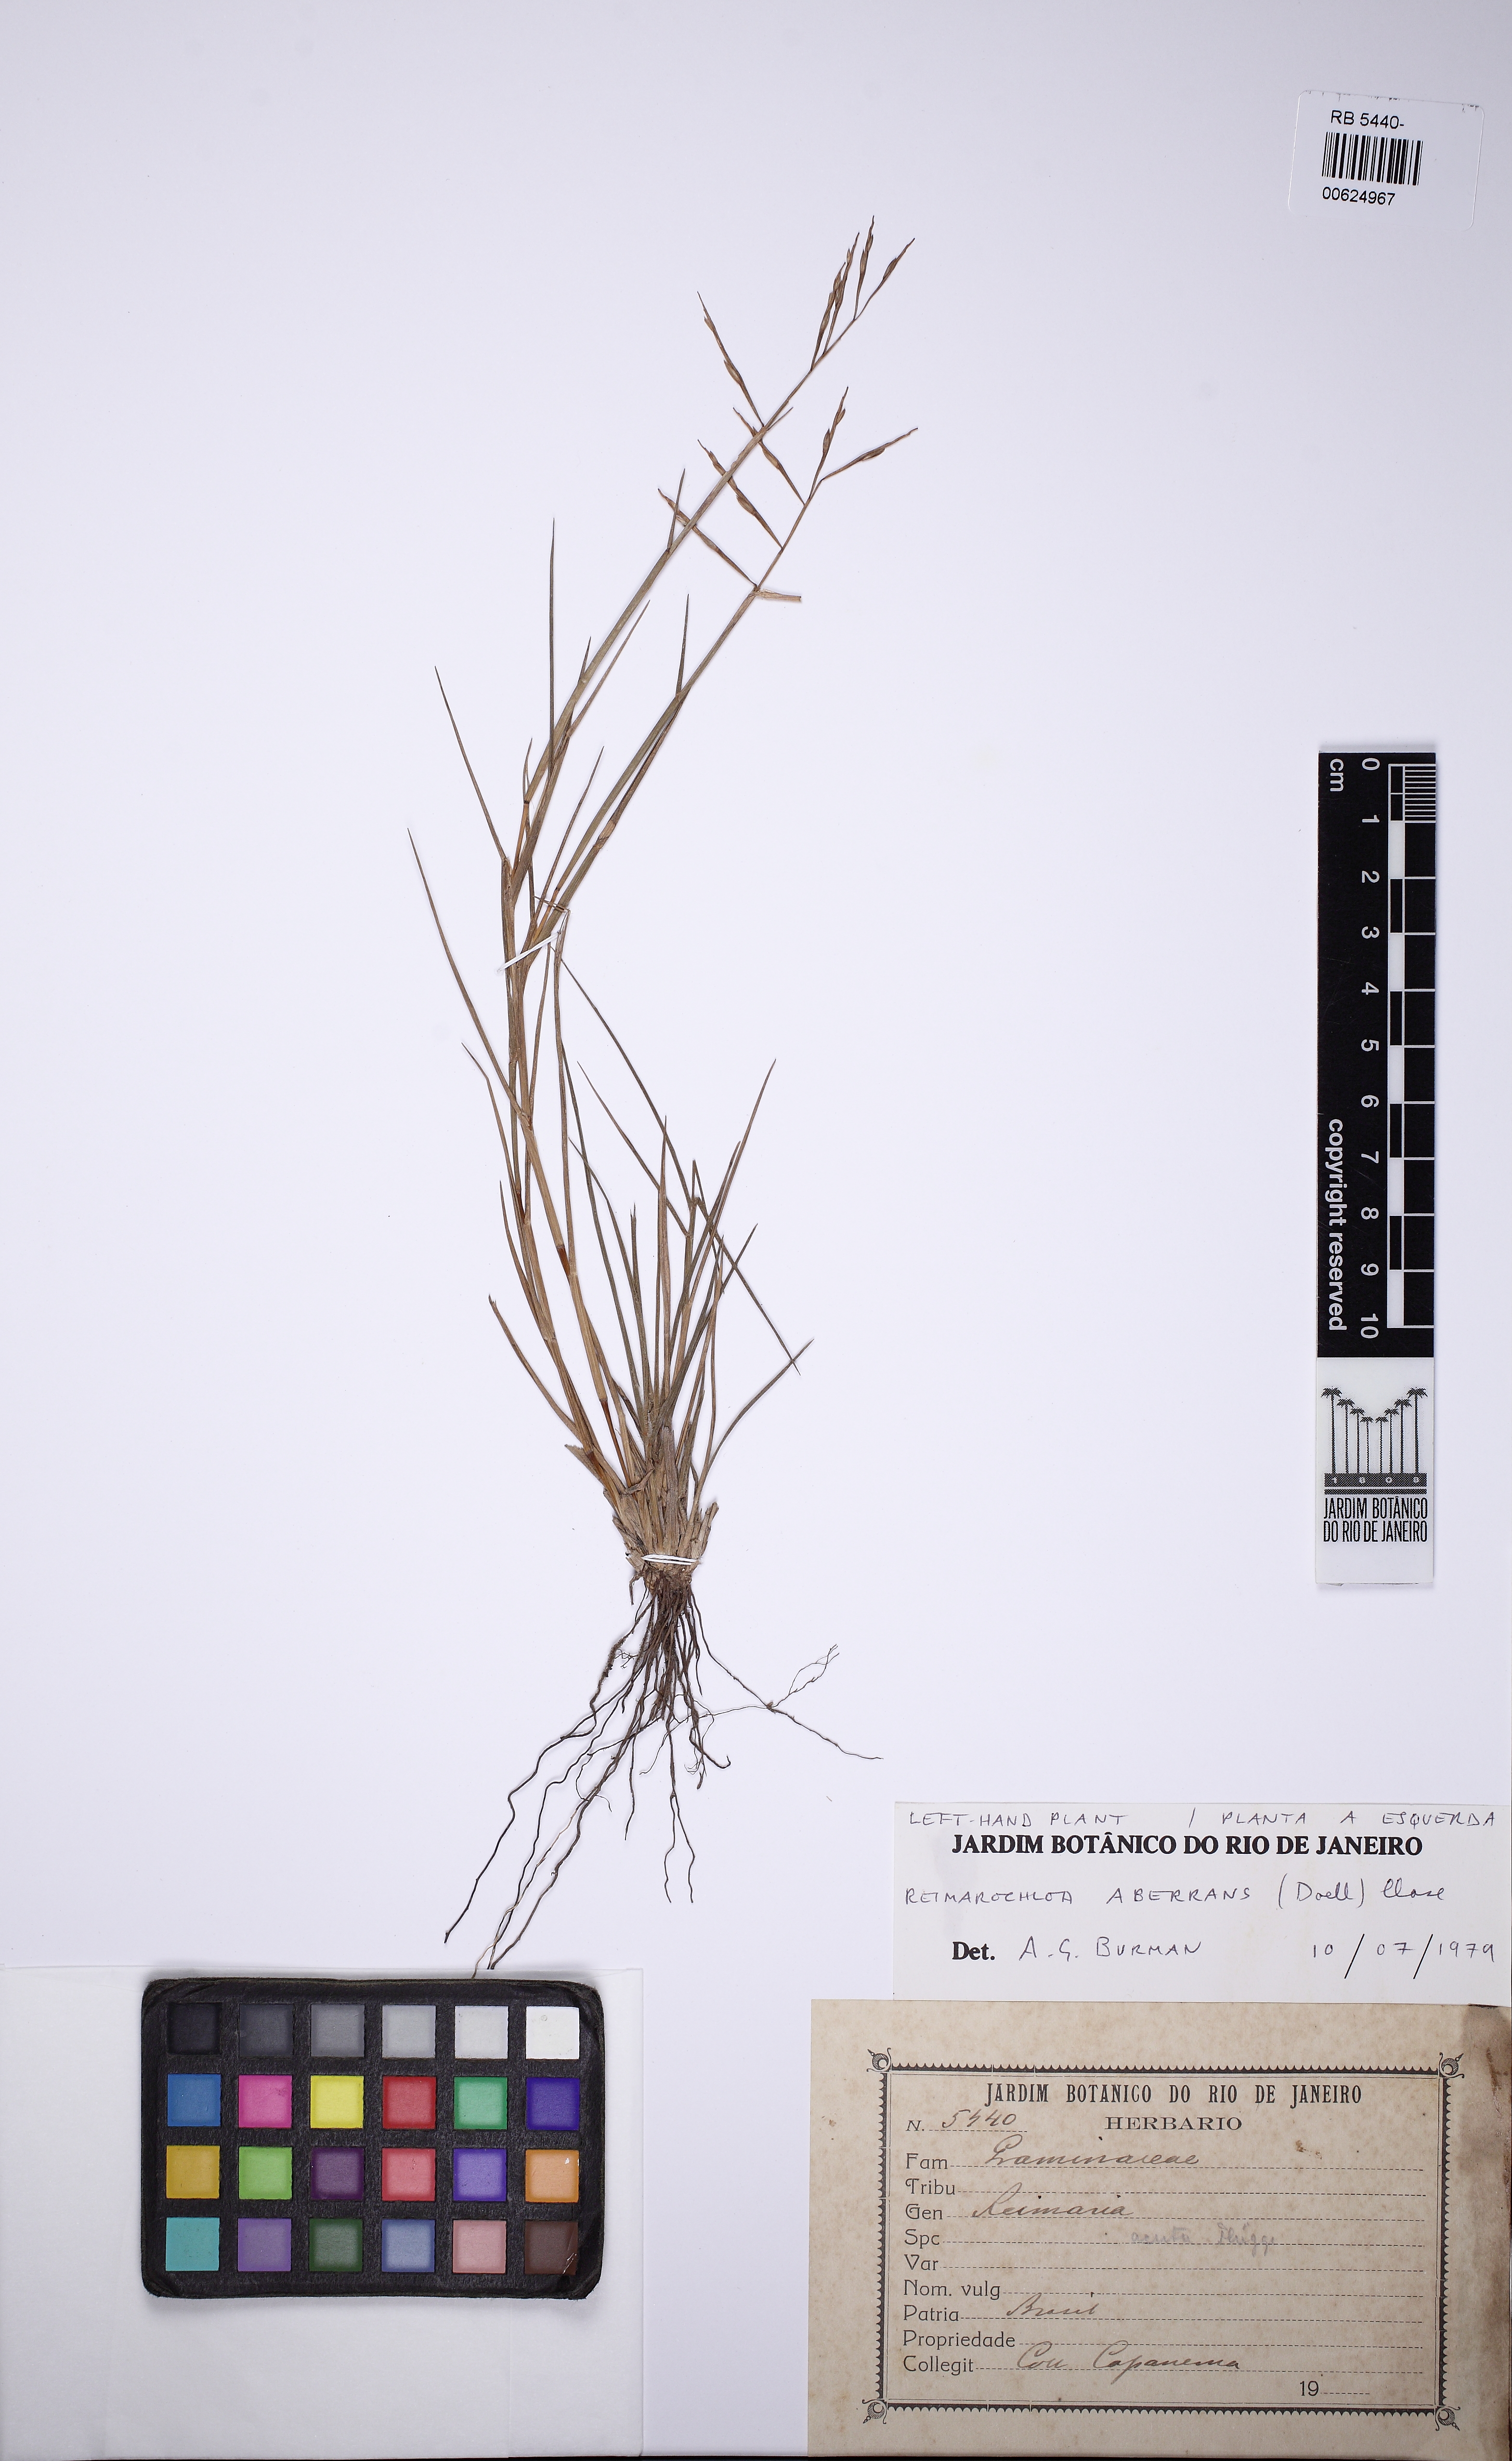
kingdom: Plantae
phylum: Tracheophyta
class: Liliopsida
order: Poales
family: Poaceae
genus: Paspalum
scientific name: Paspalum aberrans
